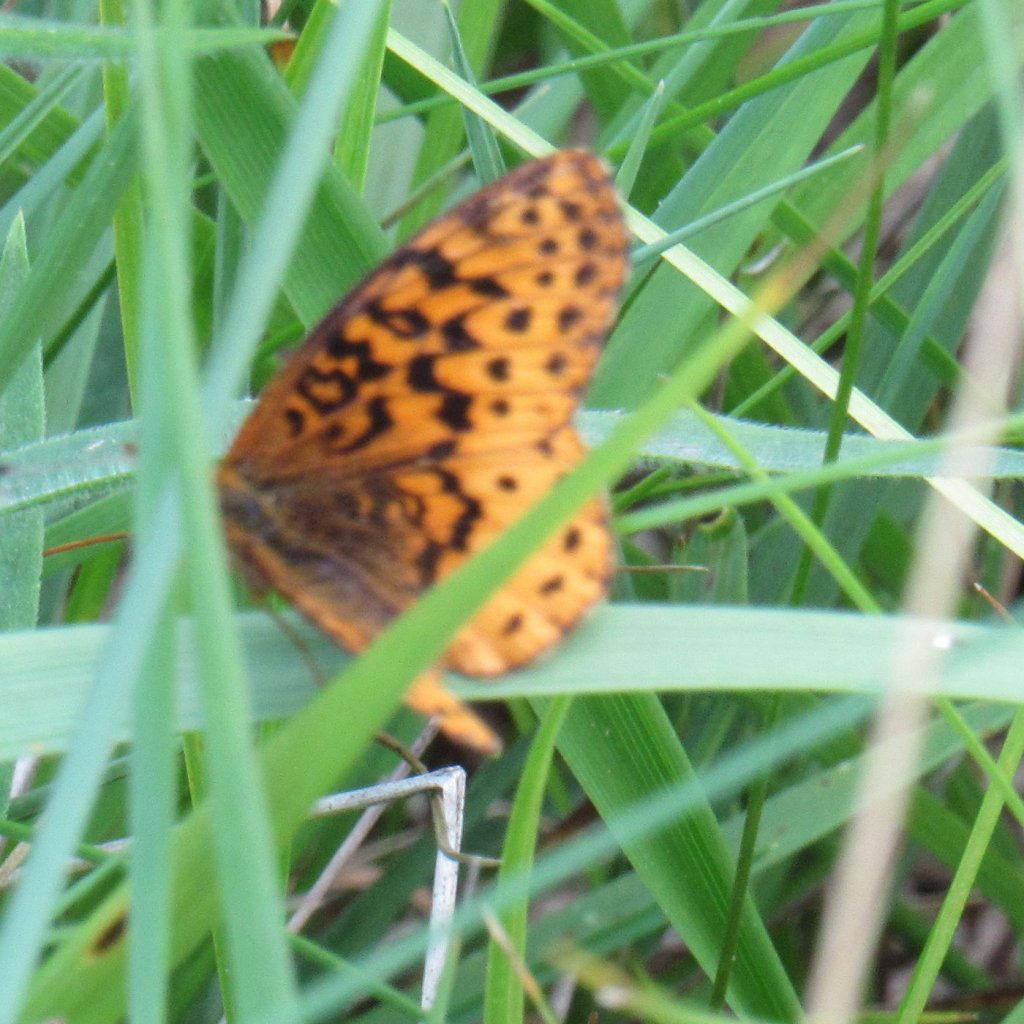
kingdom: Animalia
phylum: Arthropoda
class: Insecta
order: Lepidoptera
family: Nymphalidae
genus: Clossiana
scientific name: Clossiana toddi
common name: Meadow Fritillary
